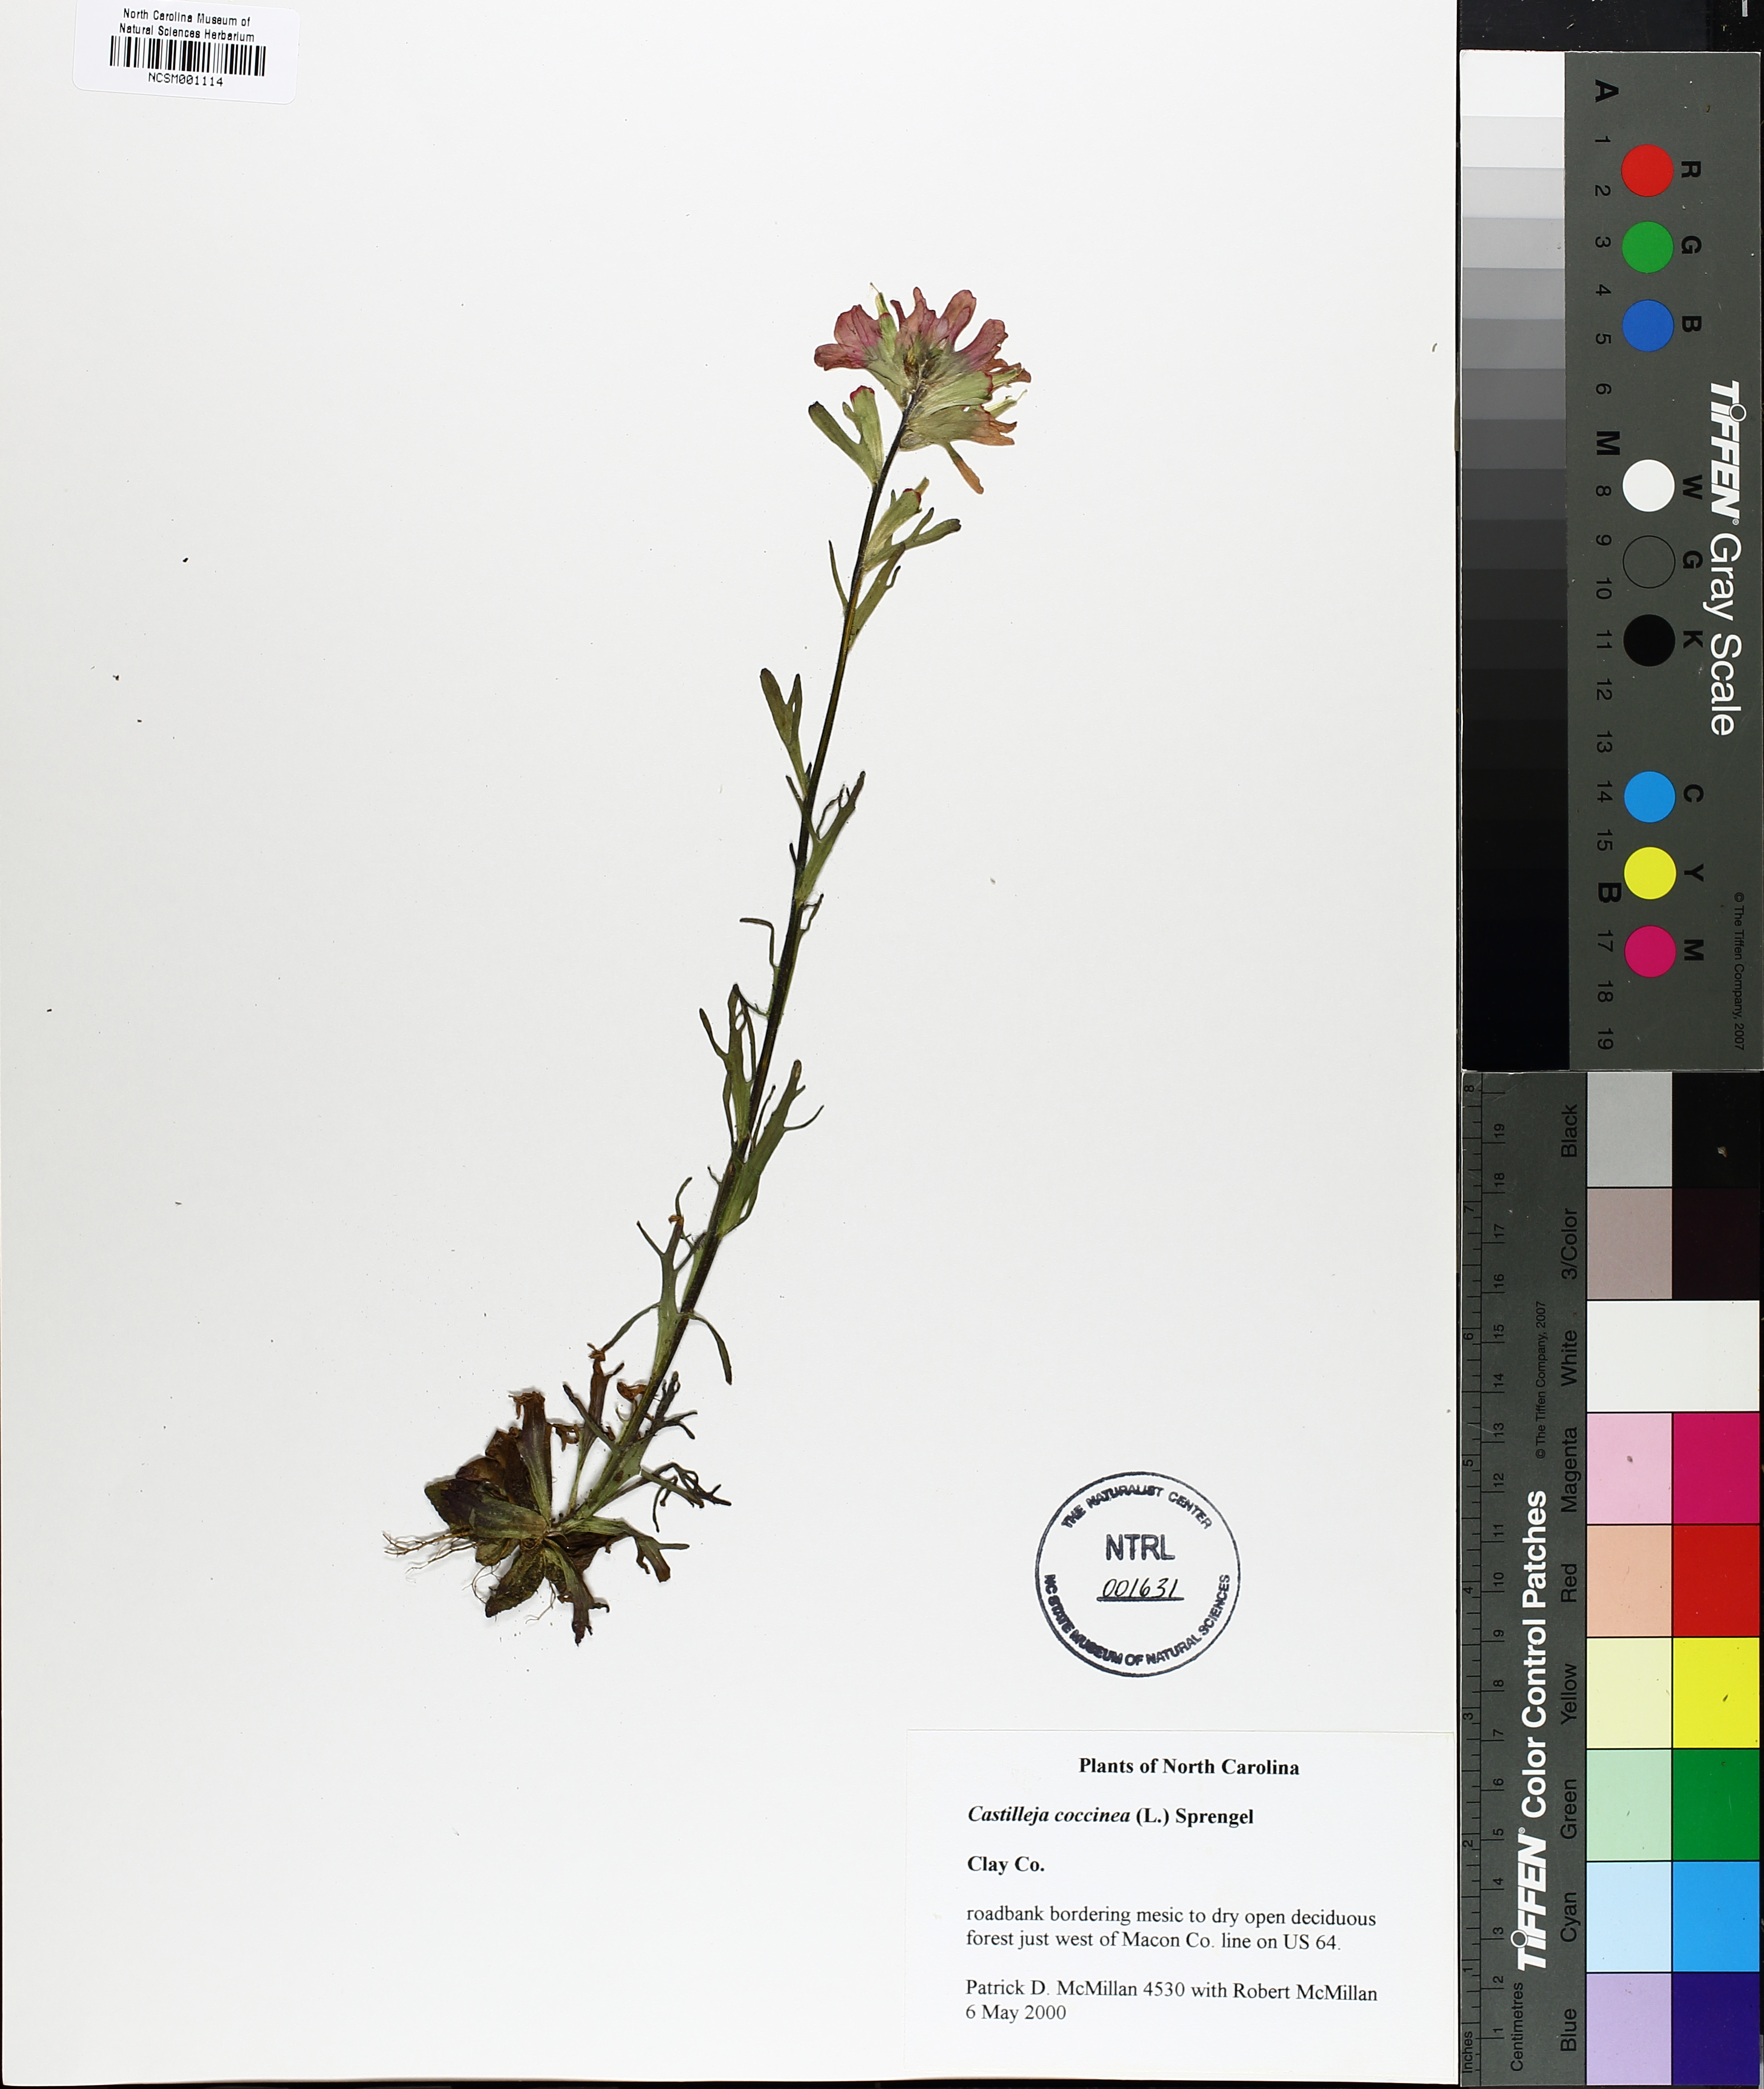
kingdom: Plantae
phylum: Tracheophyta
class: Magnoliopsida
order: Lamiales
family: Orobanchaceae
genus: Castilleja
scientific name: Castilleja coccinea
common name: Scarlet paintbrush
